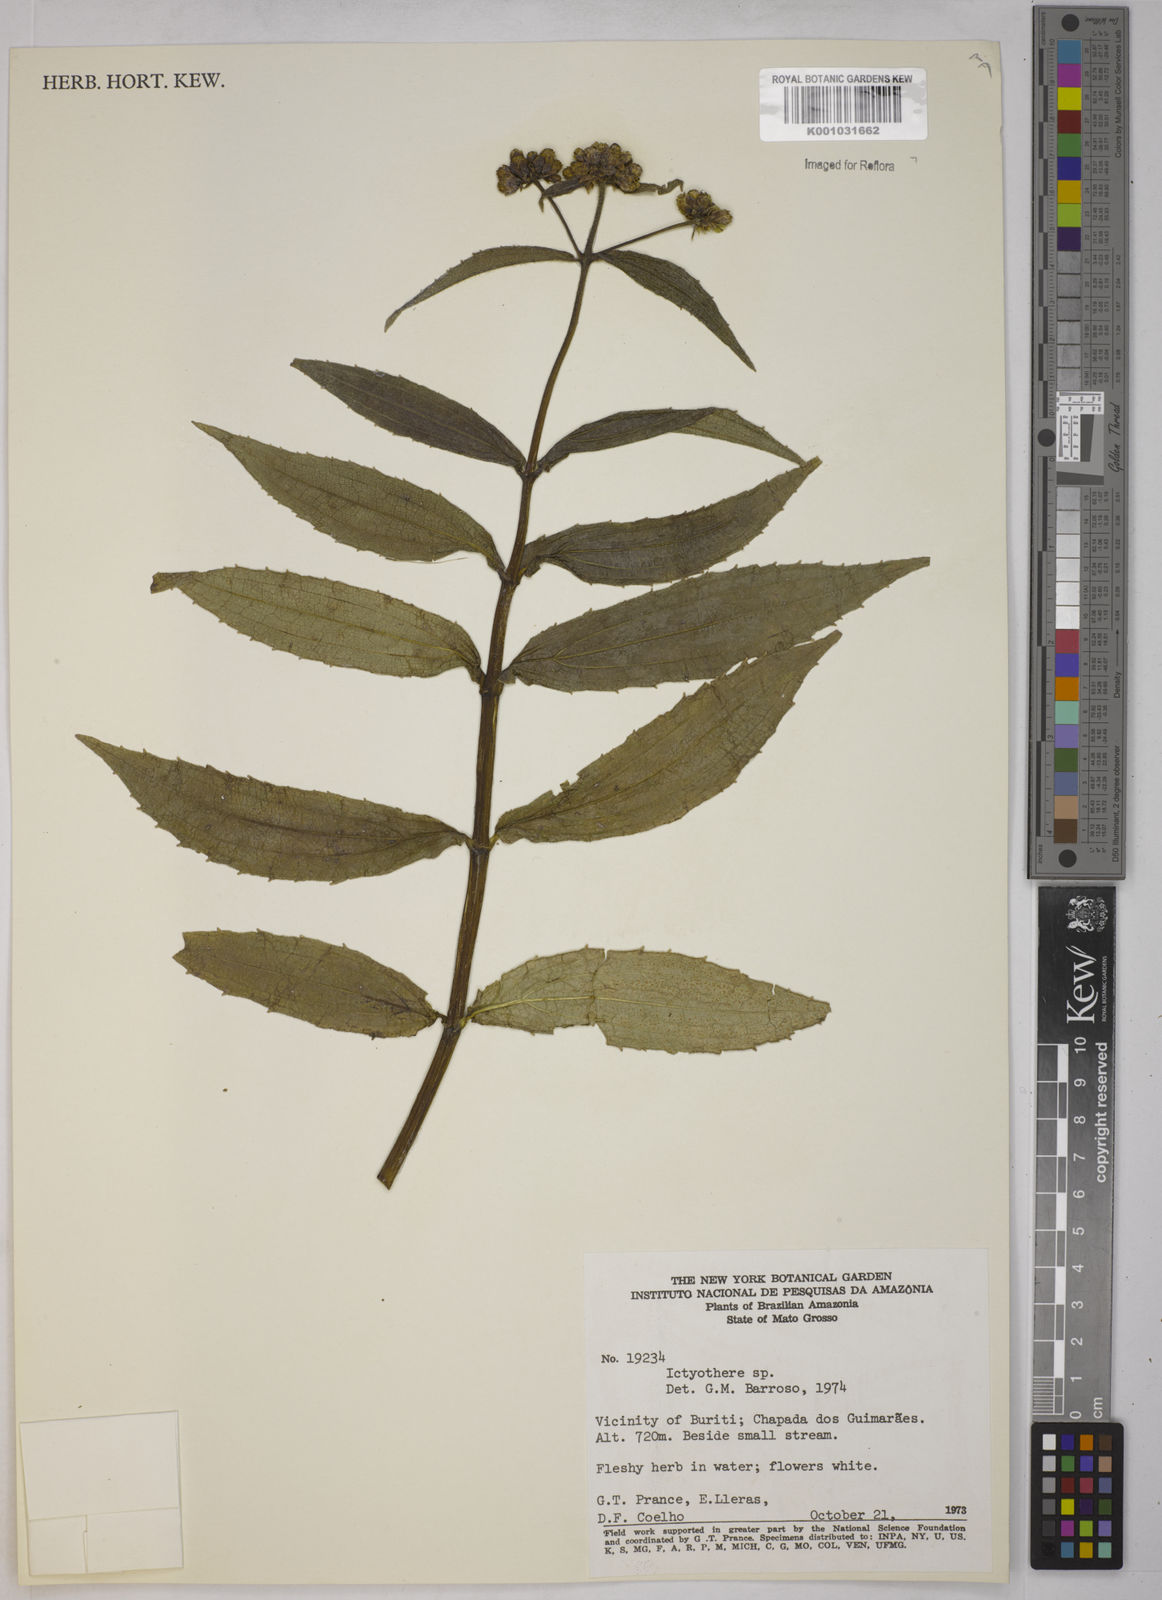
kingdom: Plantae
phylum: Tracheophyta
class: Magnoliopsida
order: Asterales
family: Asteraceae
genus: Ichthyothere
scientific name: Ichthyothere
